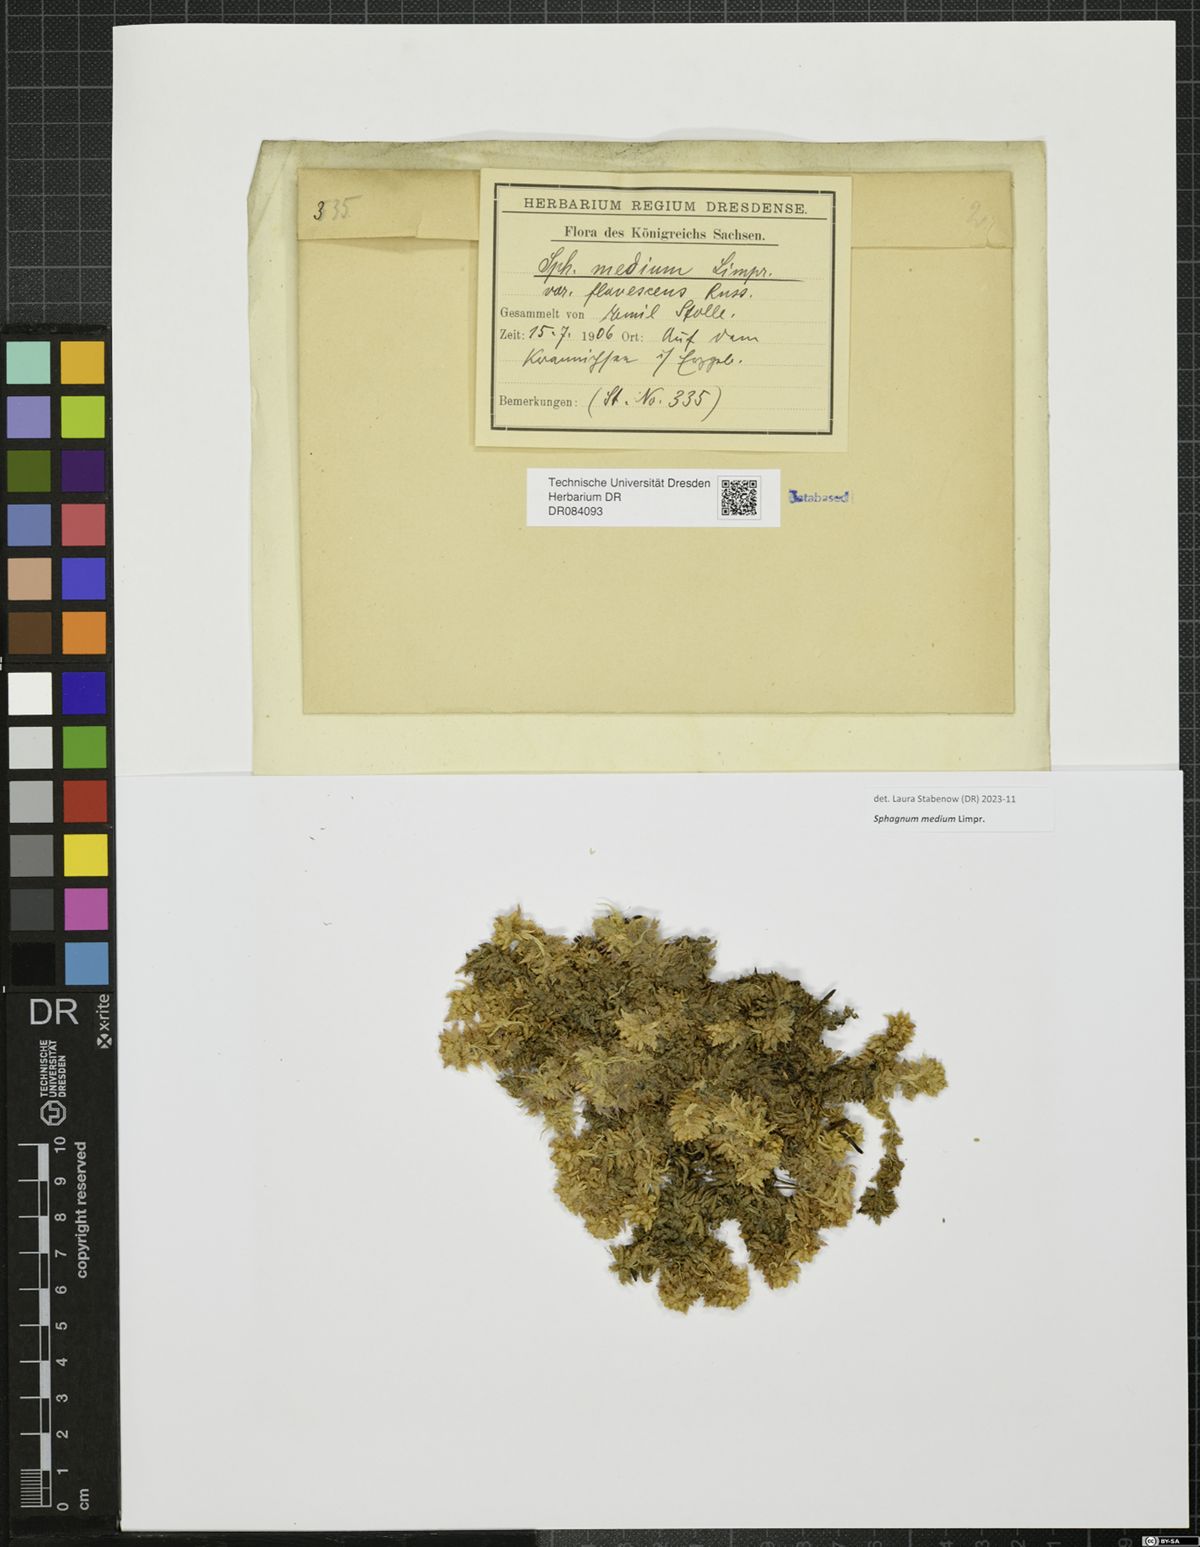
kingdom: Plantae
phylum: Bryophyta
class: Sphagnopsida
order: Sphagnales
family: Sphagnaceae
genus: Sphagnum
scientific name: Sphagnum medium
